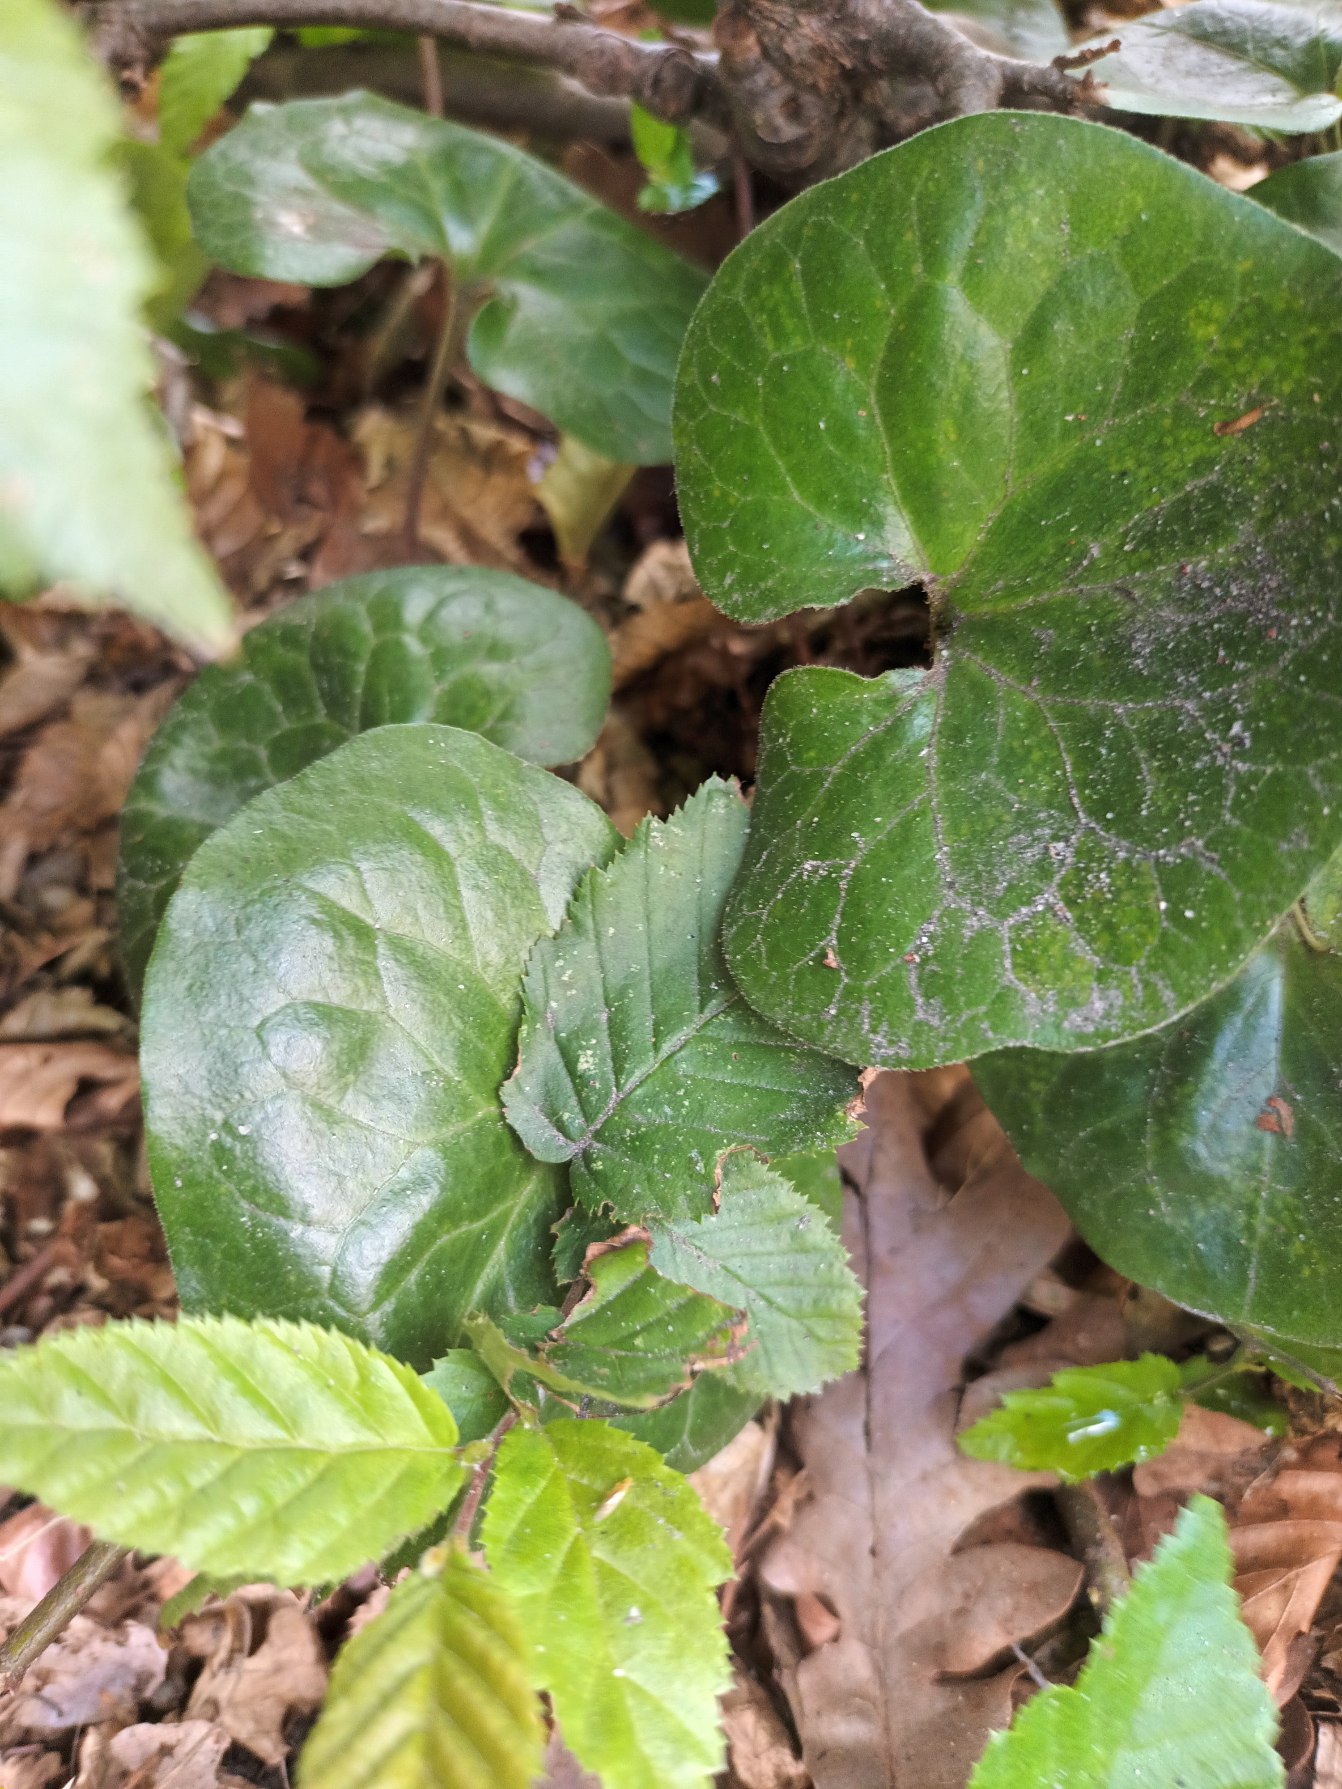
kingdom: Plantae
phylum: Tracheophyta
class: Magnoliopsida
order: Piperales
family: Aristolochiaceae
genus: Asarum
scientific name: Asarum europaeum
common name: Hasselurt
